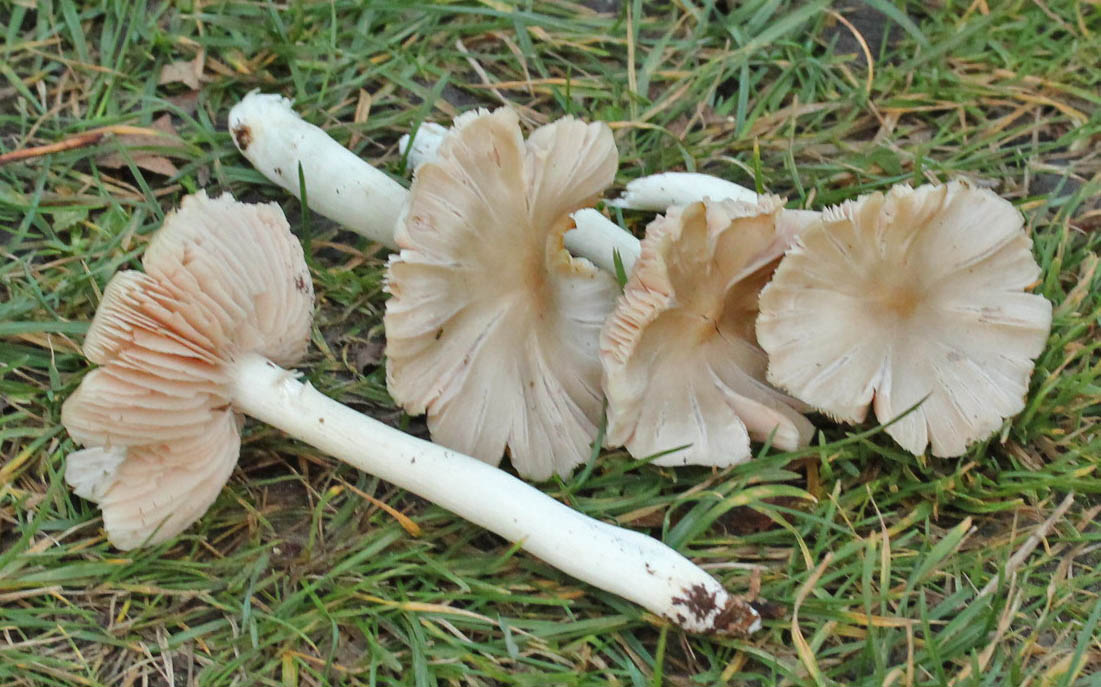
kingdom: Fungi
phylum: Basidiomycota
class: Agaricomycetes
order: Agaricales
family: Entolomataceae
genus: Entoloma
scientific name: Entoloma rhodopolium
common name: skov-rødblad
